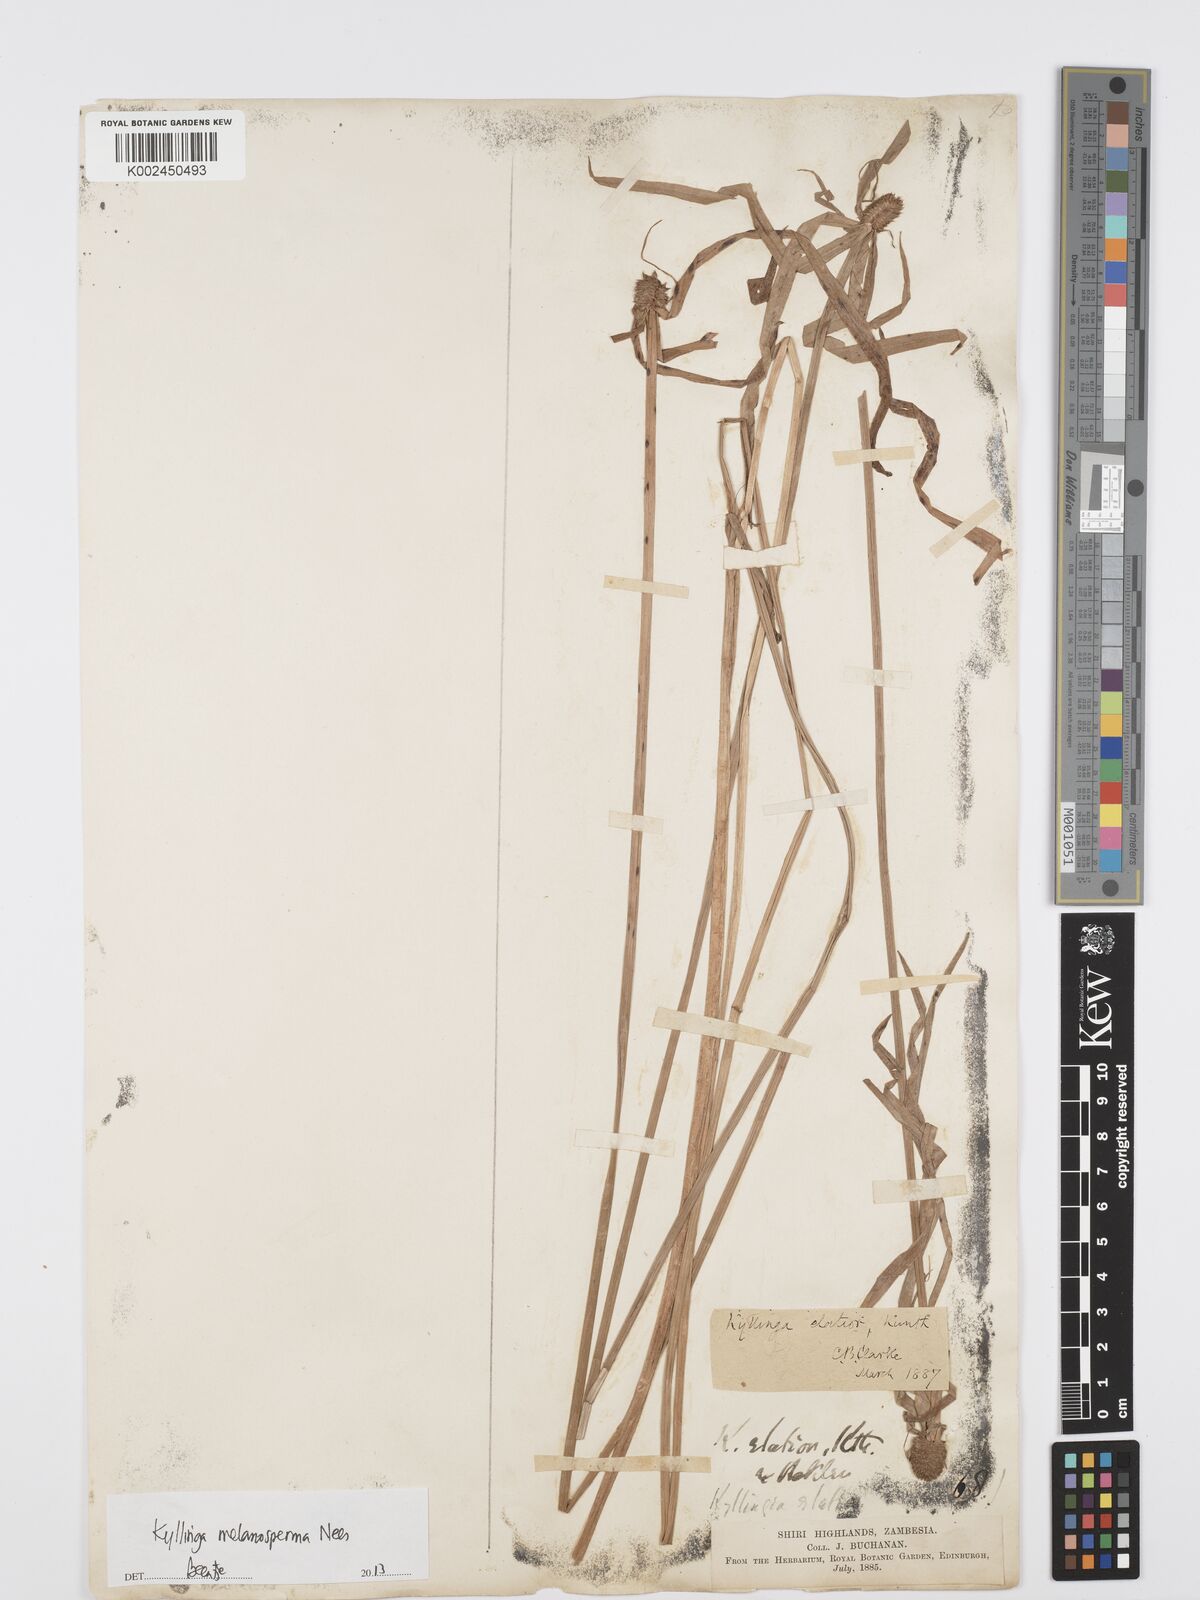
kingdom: Plantae
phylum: Tracheophyta
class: Liliopsida
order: Poales
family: Cyperaceae
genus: Cyperus
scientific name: Cyperus melanospermus
